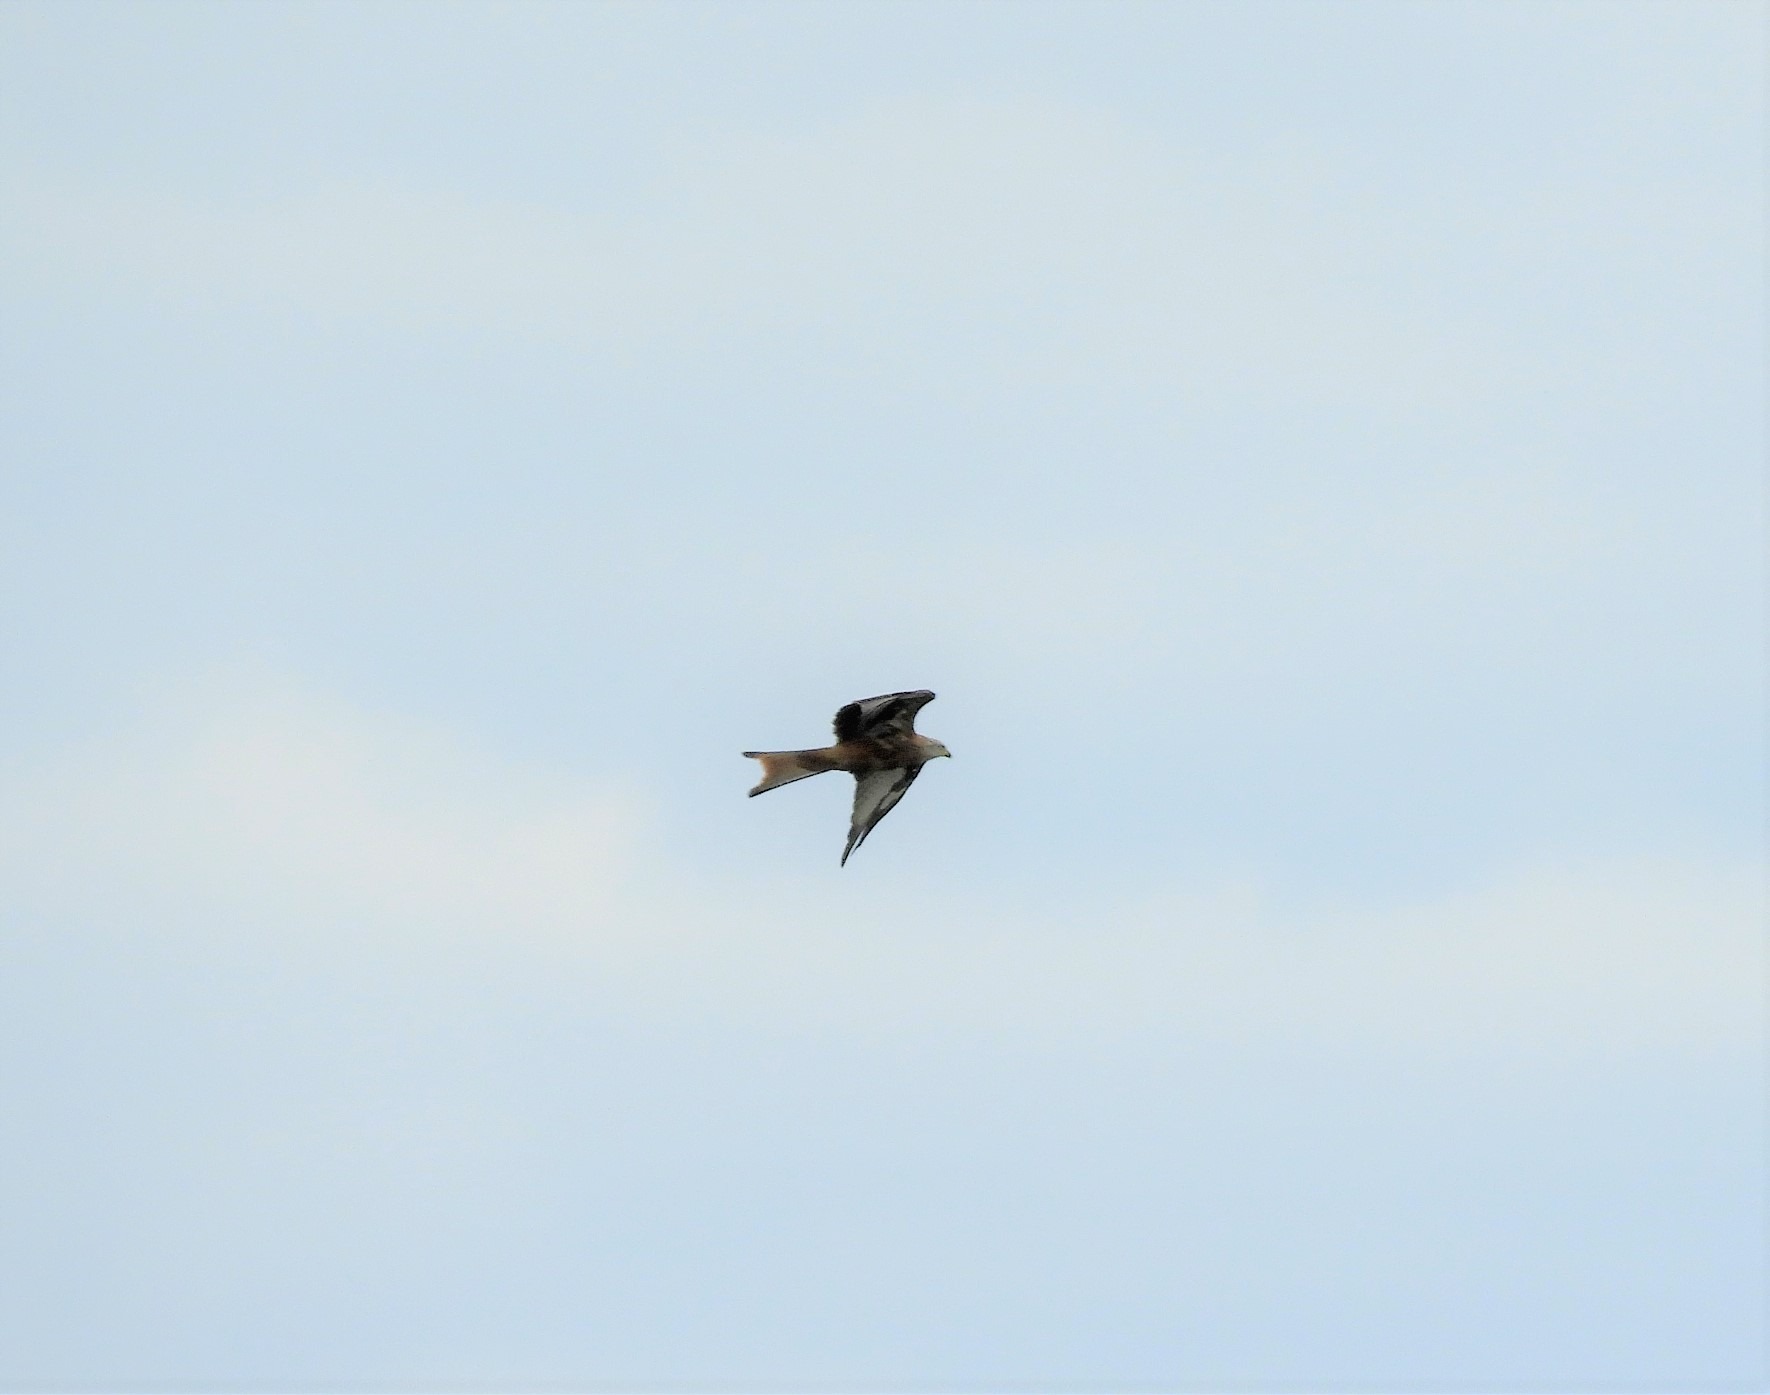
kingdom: Animalia
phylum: Chordata
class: Aves
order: Accipitriformes
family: Accipitridae
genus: Milvus
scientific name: Milvus milvus
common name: Rød glente
